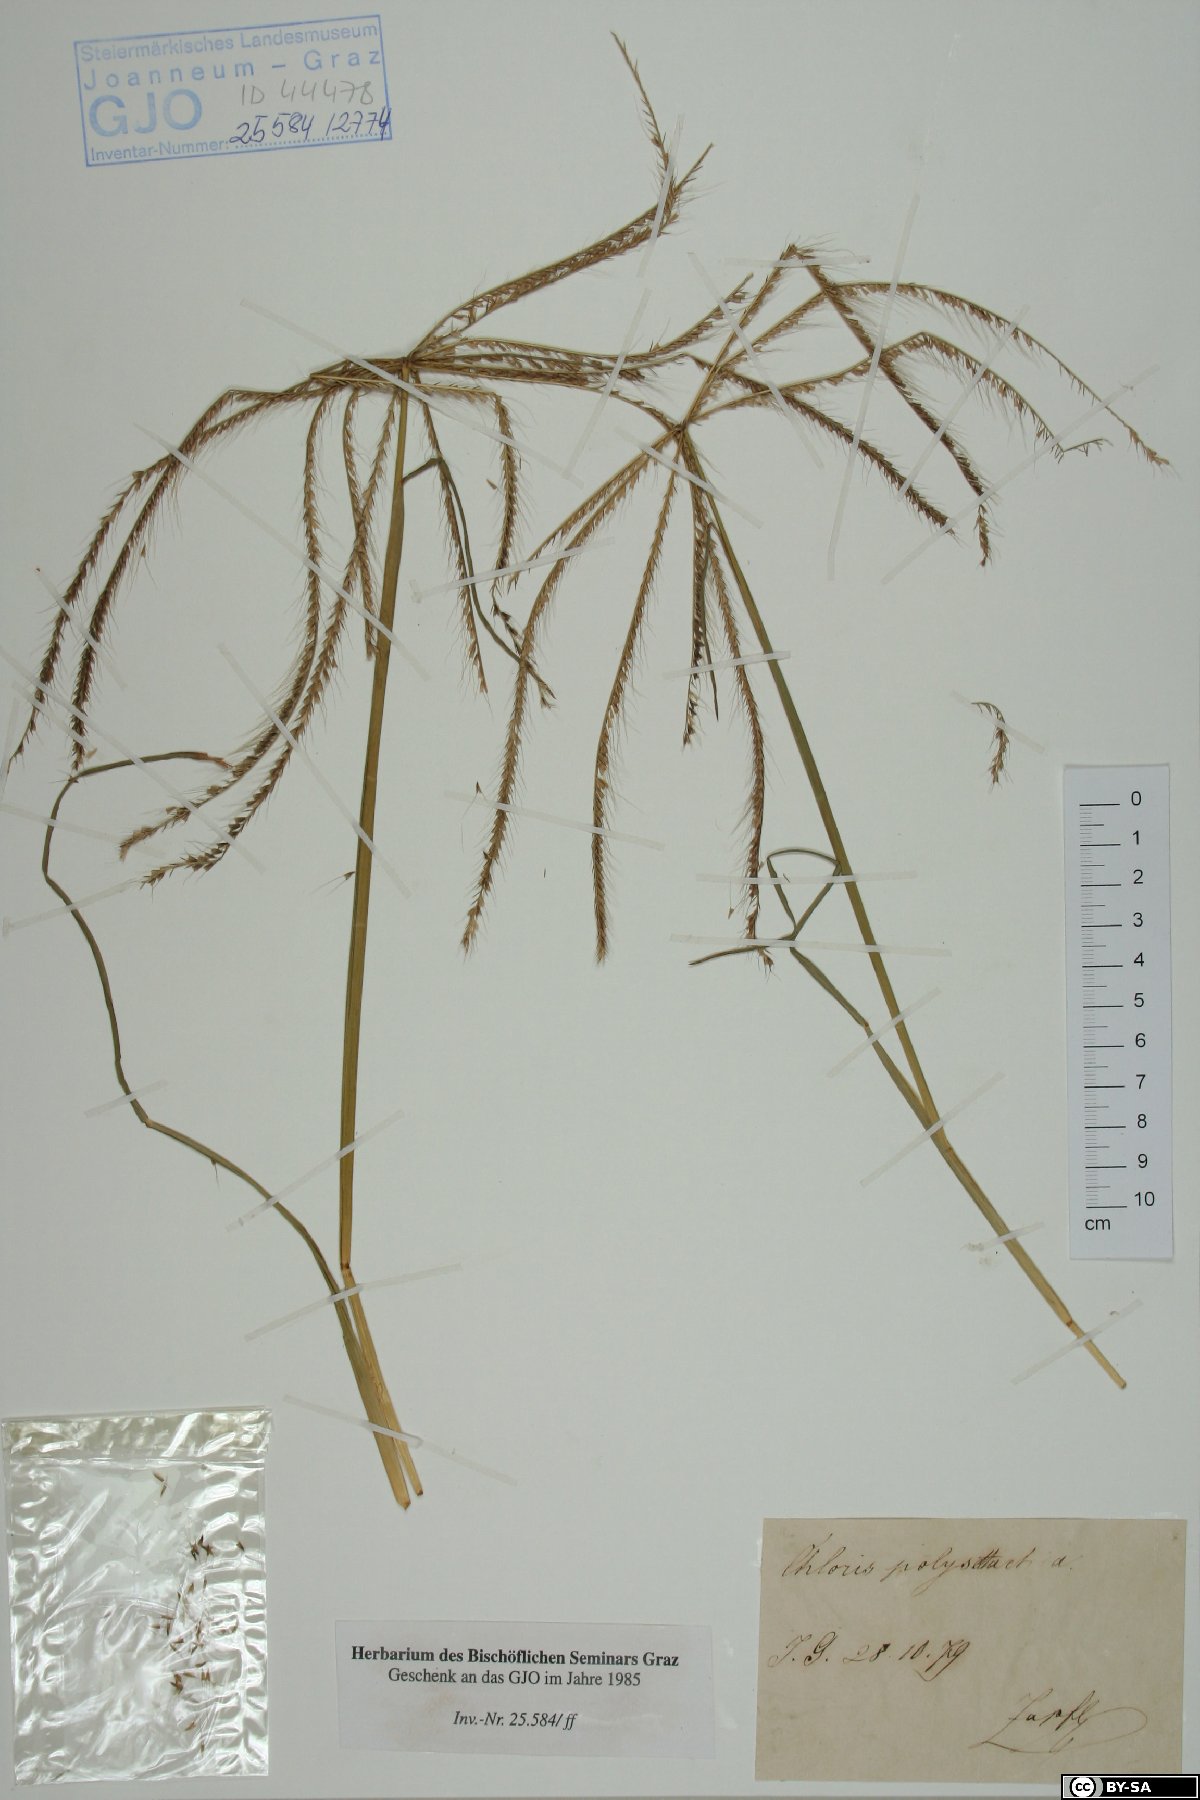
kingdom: Plantae
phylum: Tracheophyta
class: Liliopsida
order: Poales
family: Poaceae
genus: Tetrapogon
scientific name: Tetrapogon roxburghiana
